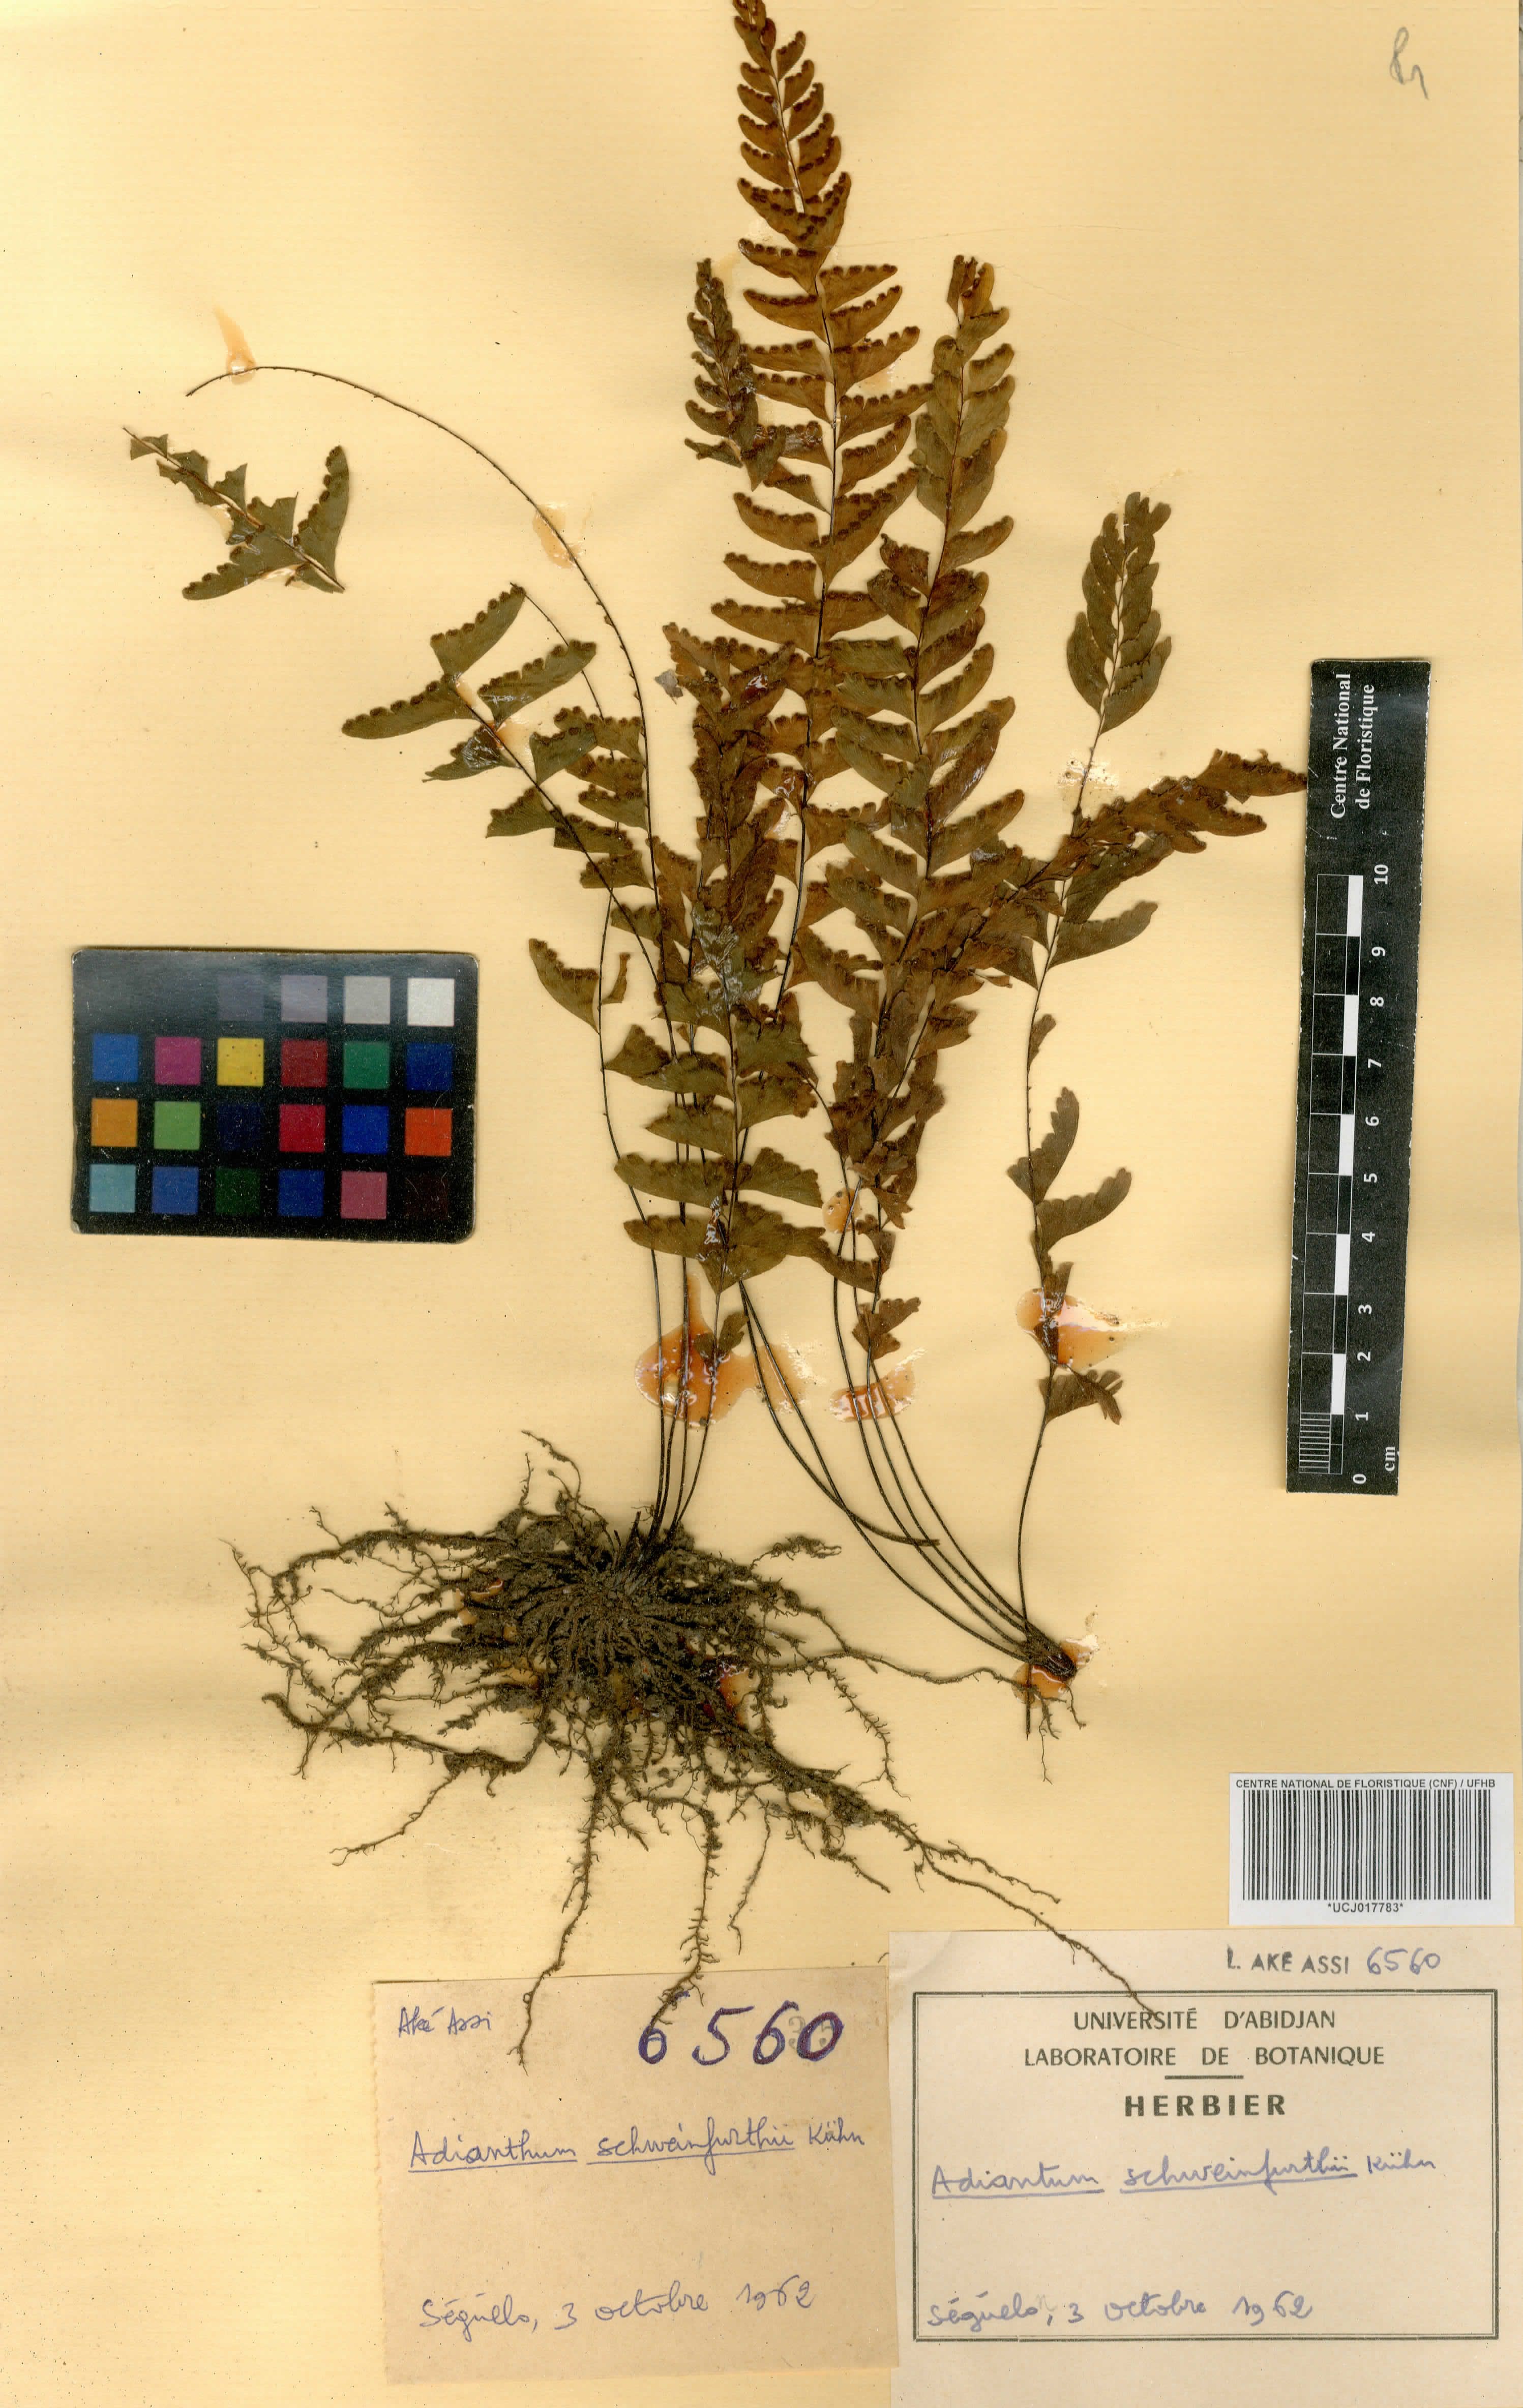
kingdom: Plantae
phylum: Tracheophyta
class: Polypodiopsida
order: Polypodiales
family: Pteridaceae
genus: Adiantum
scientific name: Adiantum schweinfurthii
